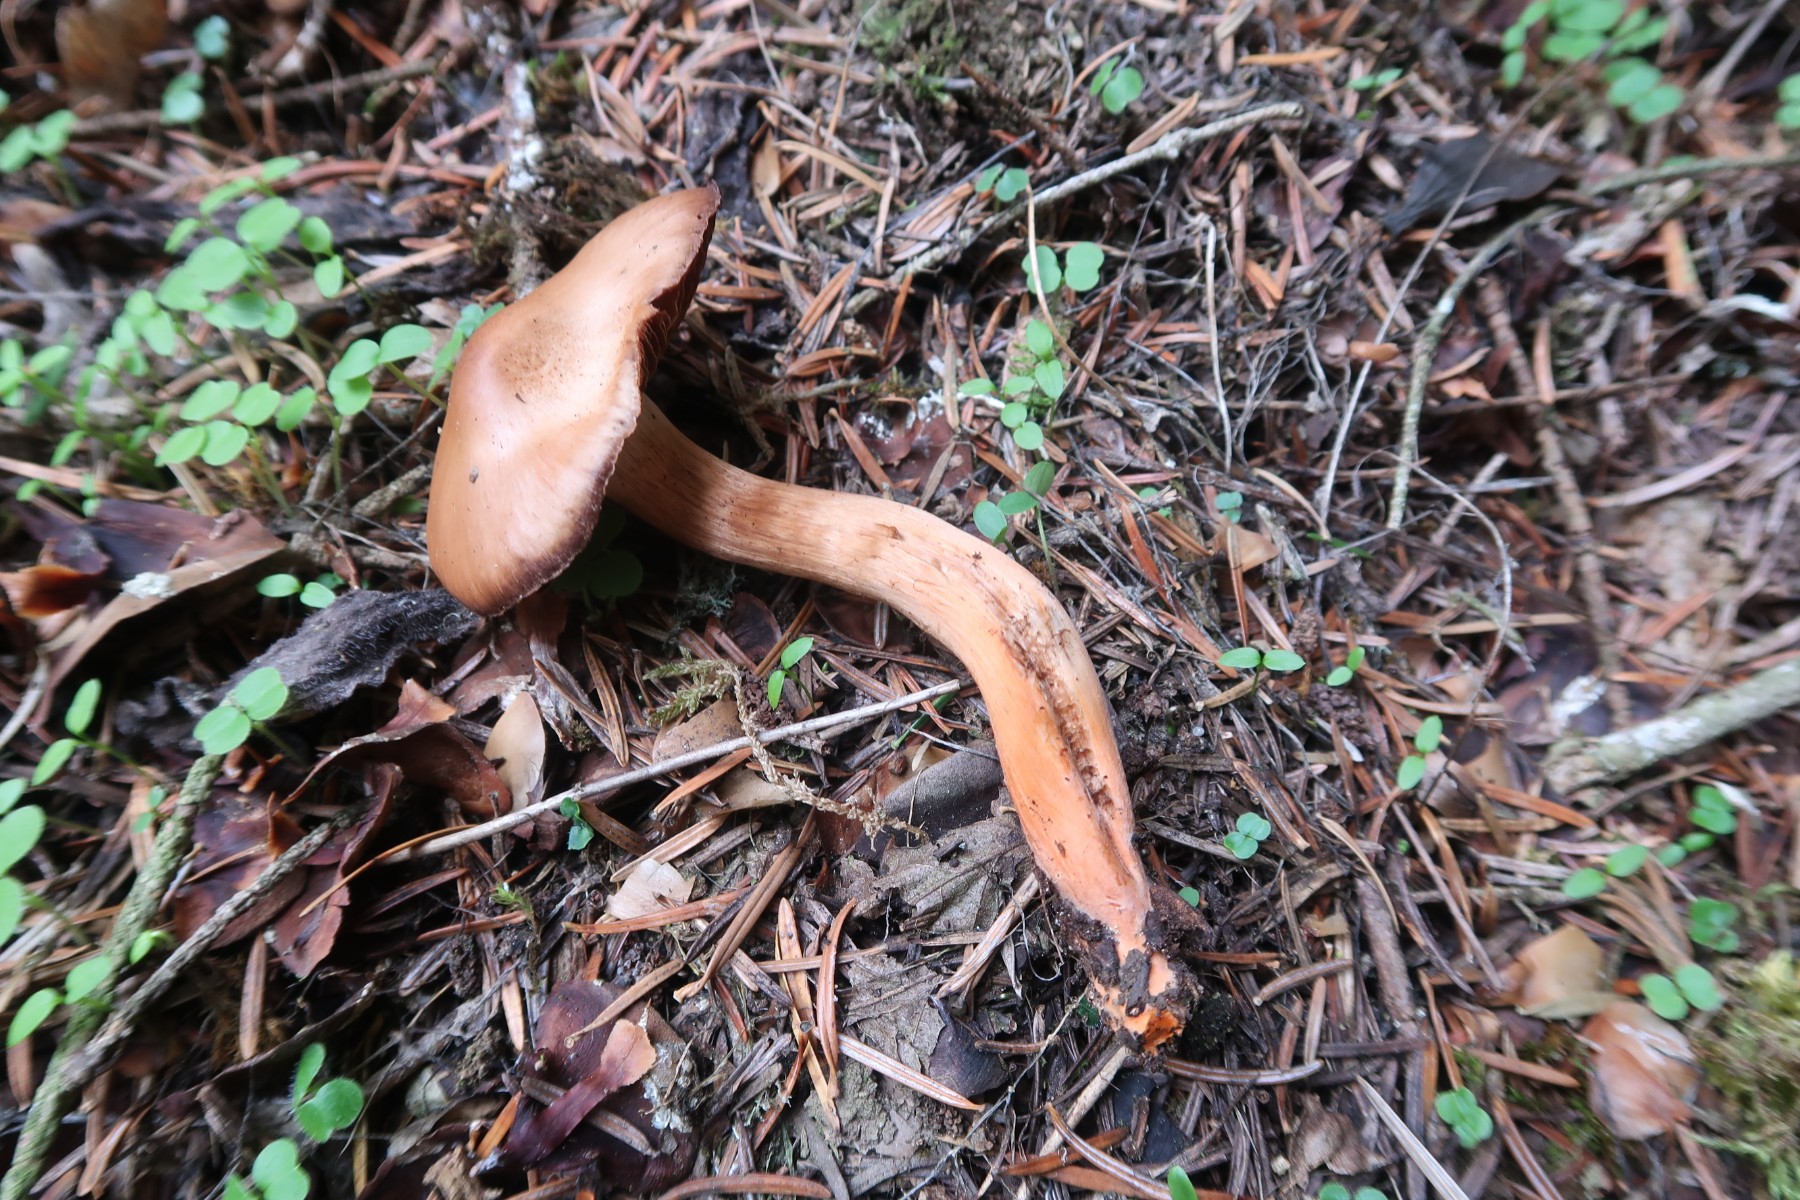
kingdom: Fungi
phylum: Basidiomycota
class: Agaricomycetes
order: Agaricales
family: Cortinariaceae
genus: Cortinarius
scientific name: Cortinarius bulliardii
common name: Bulliards slørhat
